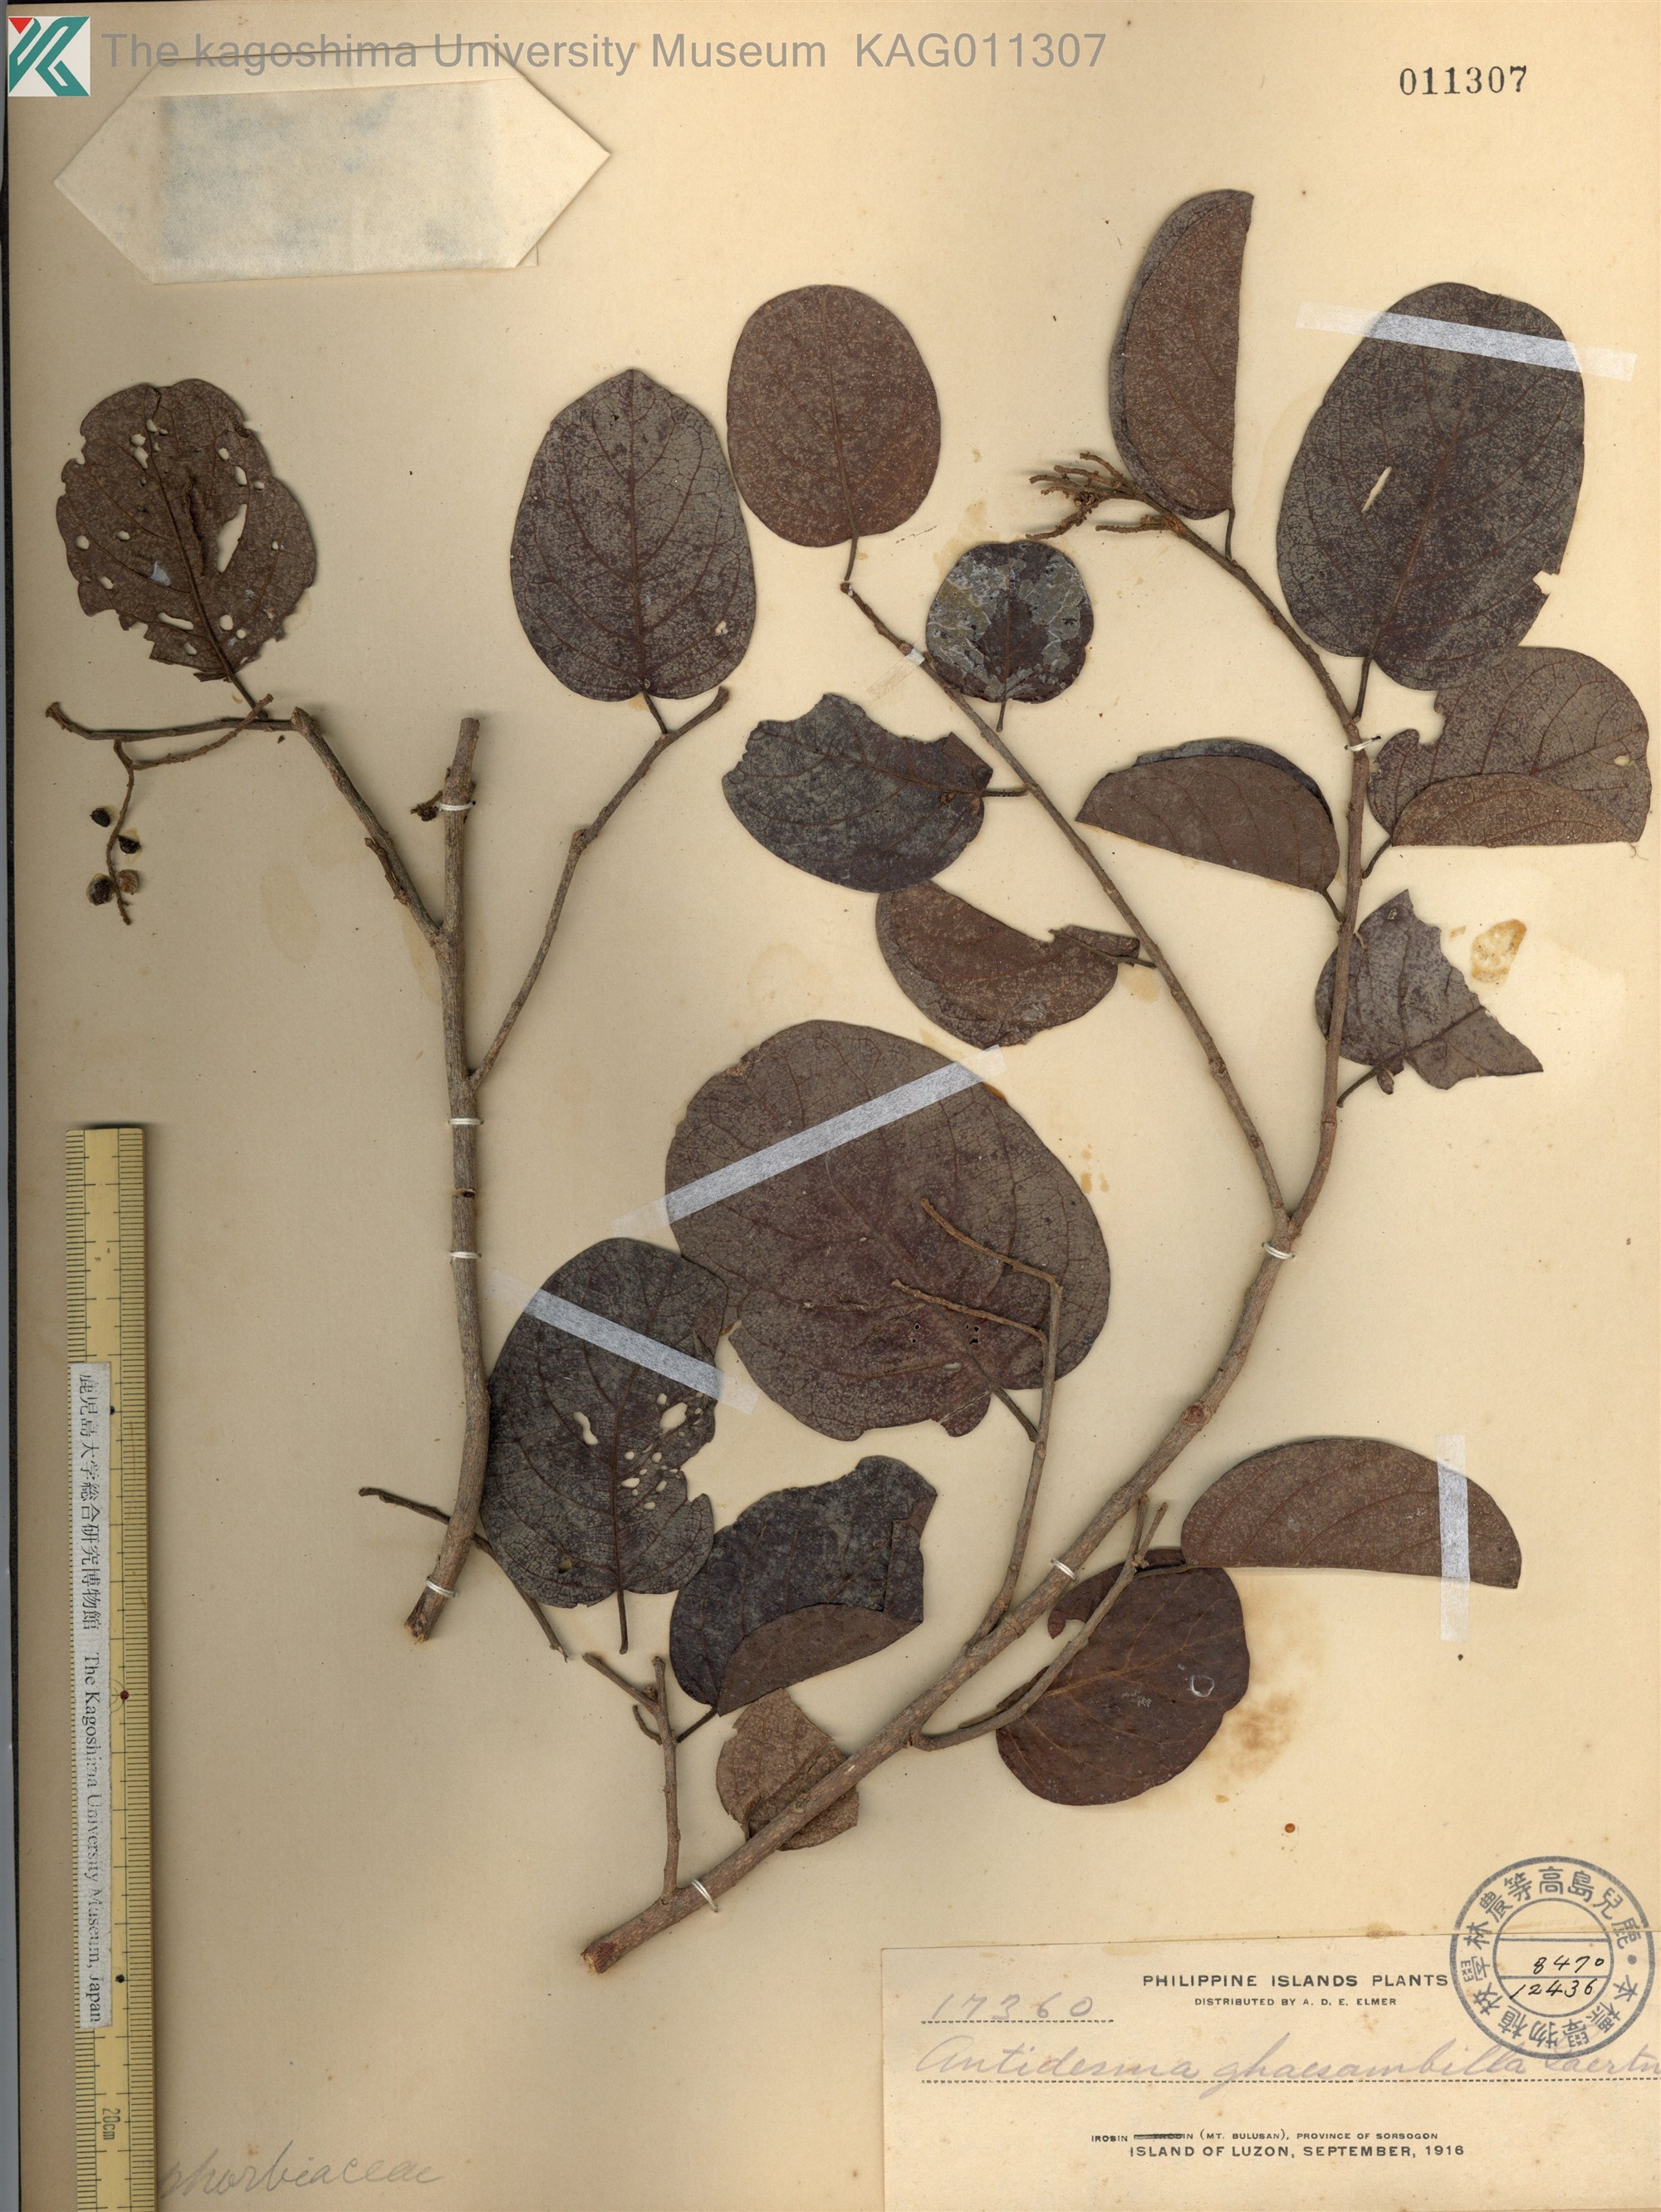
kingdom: Plantae
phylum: Tracheophyta
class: Magnoliopsida
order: Malpighiales
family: Phyllanthaceae
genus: Antidesma
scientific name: Antidesma ghaesembilla
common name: Black currant-tree
